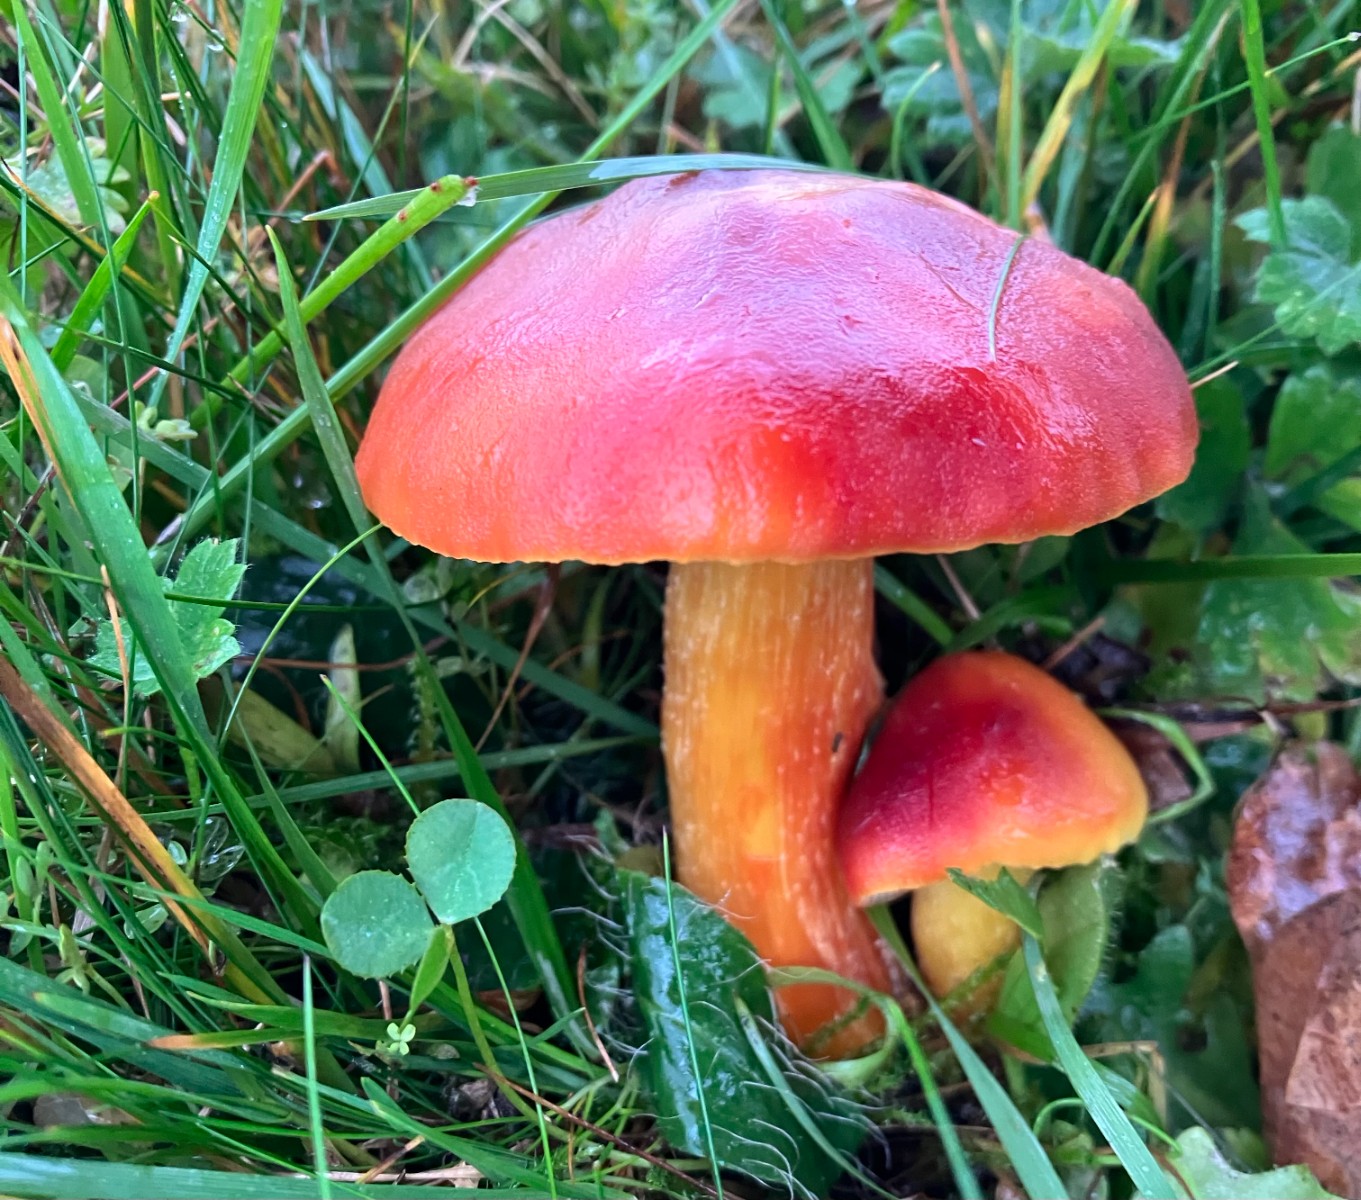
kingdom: Fungi
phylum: Basidiomycota
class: Agaricomycetes
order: Agaricales
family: Hygrophoraceae
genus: Hygrocybe
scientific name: Hygrocybe punicea
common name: skarlagen-vokshat
